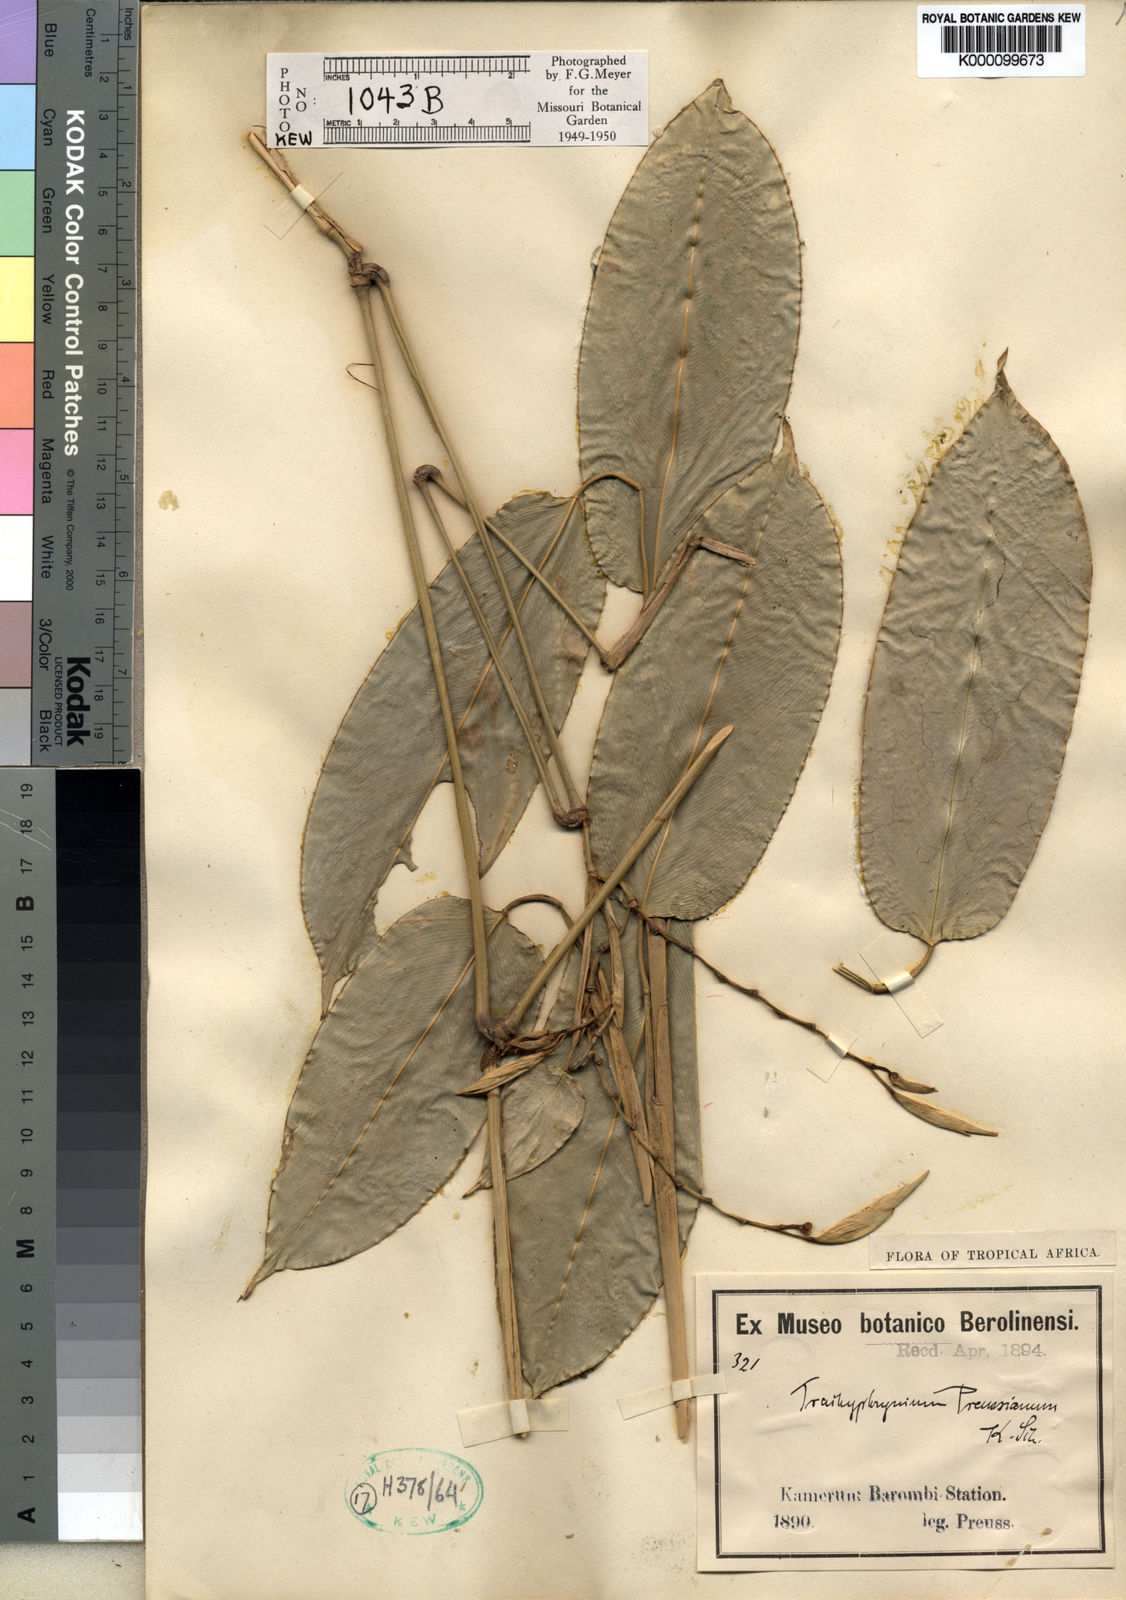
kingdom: Plantae
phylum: Tracheophyta
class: Liliopsida
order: Zingiberales
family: Marantaceae
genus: Hypselodelphys
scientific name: Hypselodelphys violacea
